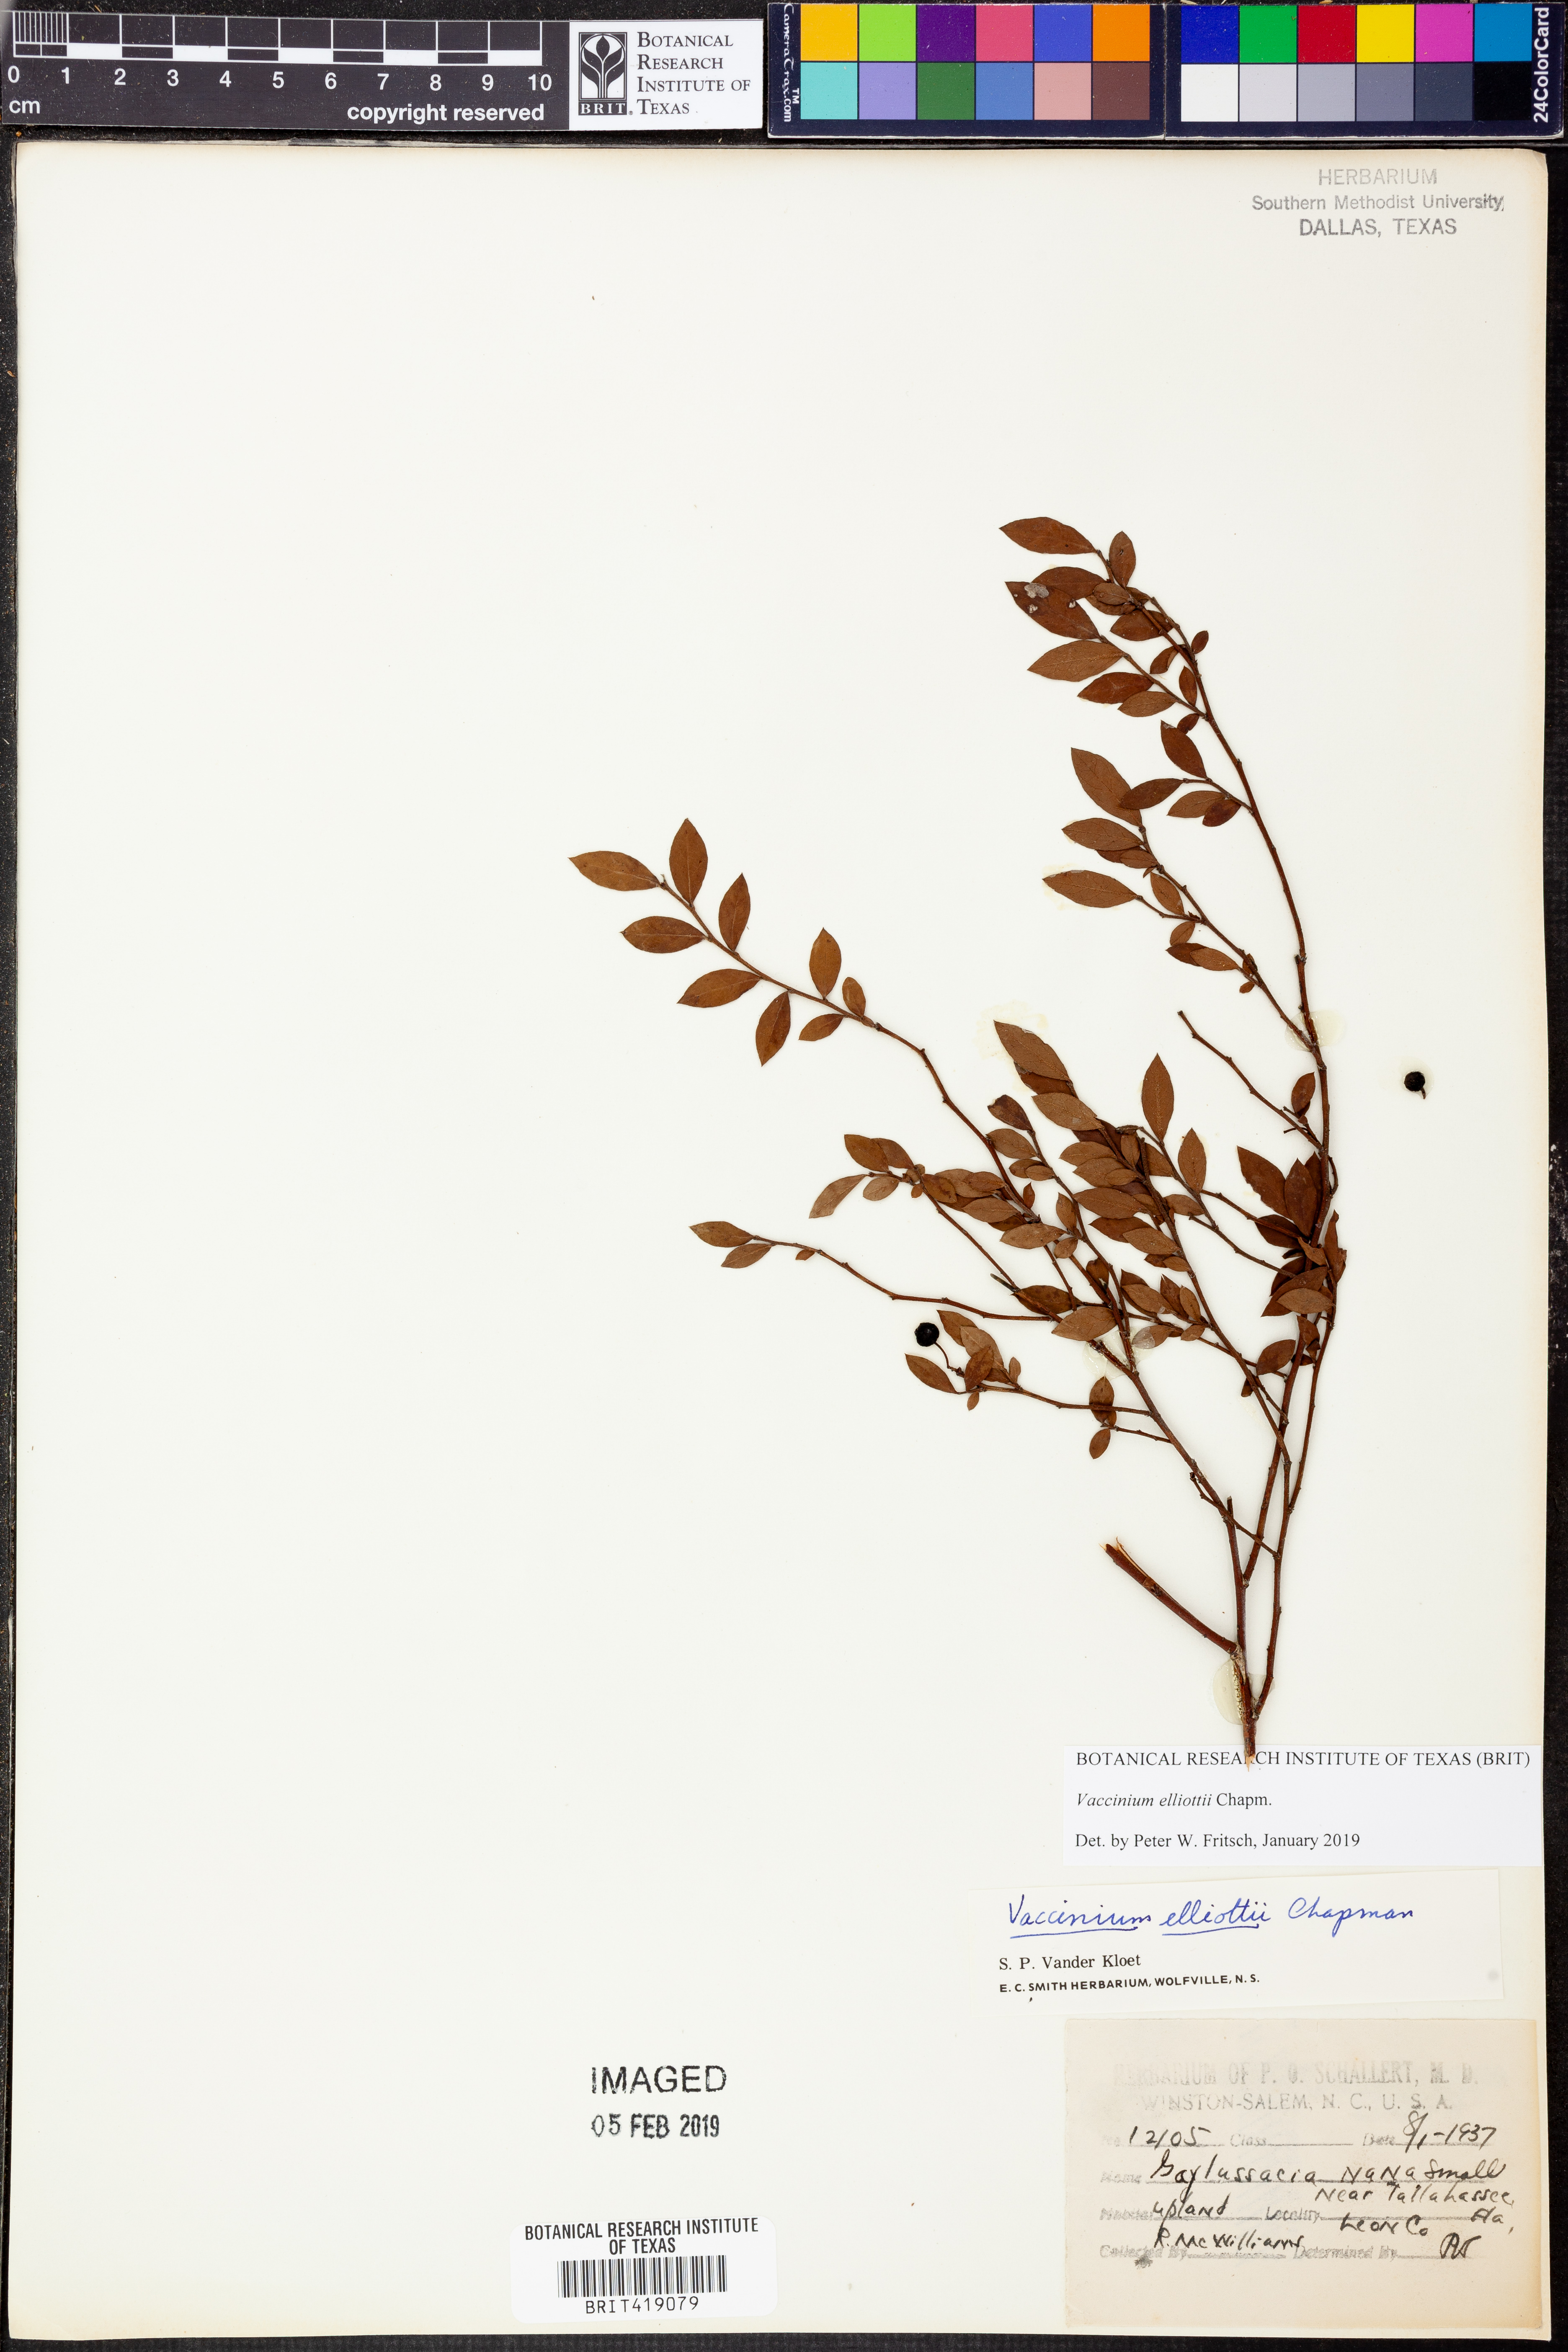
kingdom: Plantae
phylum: Tracheophyta
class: Magnoliopsida
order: Ericales
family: Ericaceae
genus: Vaccinium
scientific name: Vaccinium corymbosum
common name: Blueberry
